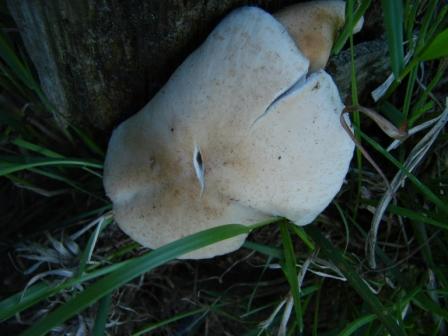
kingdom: Fungi
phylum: Basidiomycota
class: Agaricomycetes
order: Agaricales
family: Psathyrellaceae
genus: Candolleomyces
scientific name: Candolleomyces candolleanus
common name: Candolles mørkhat
